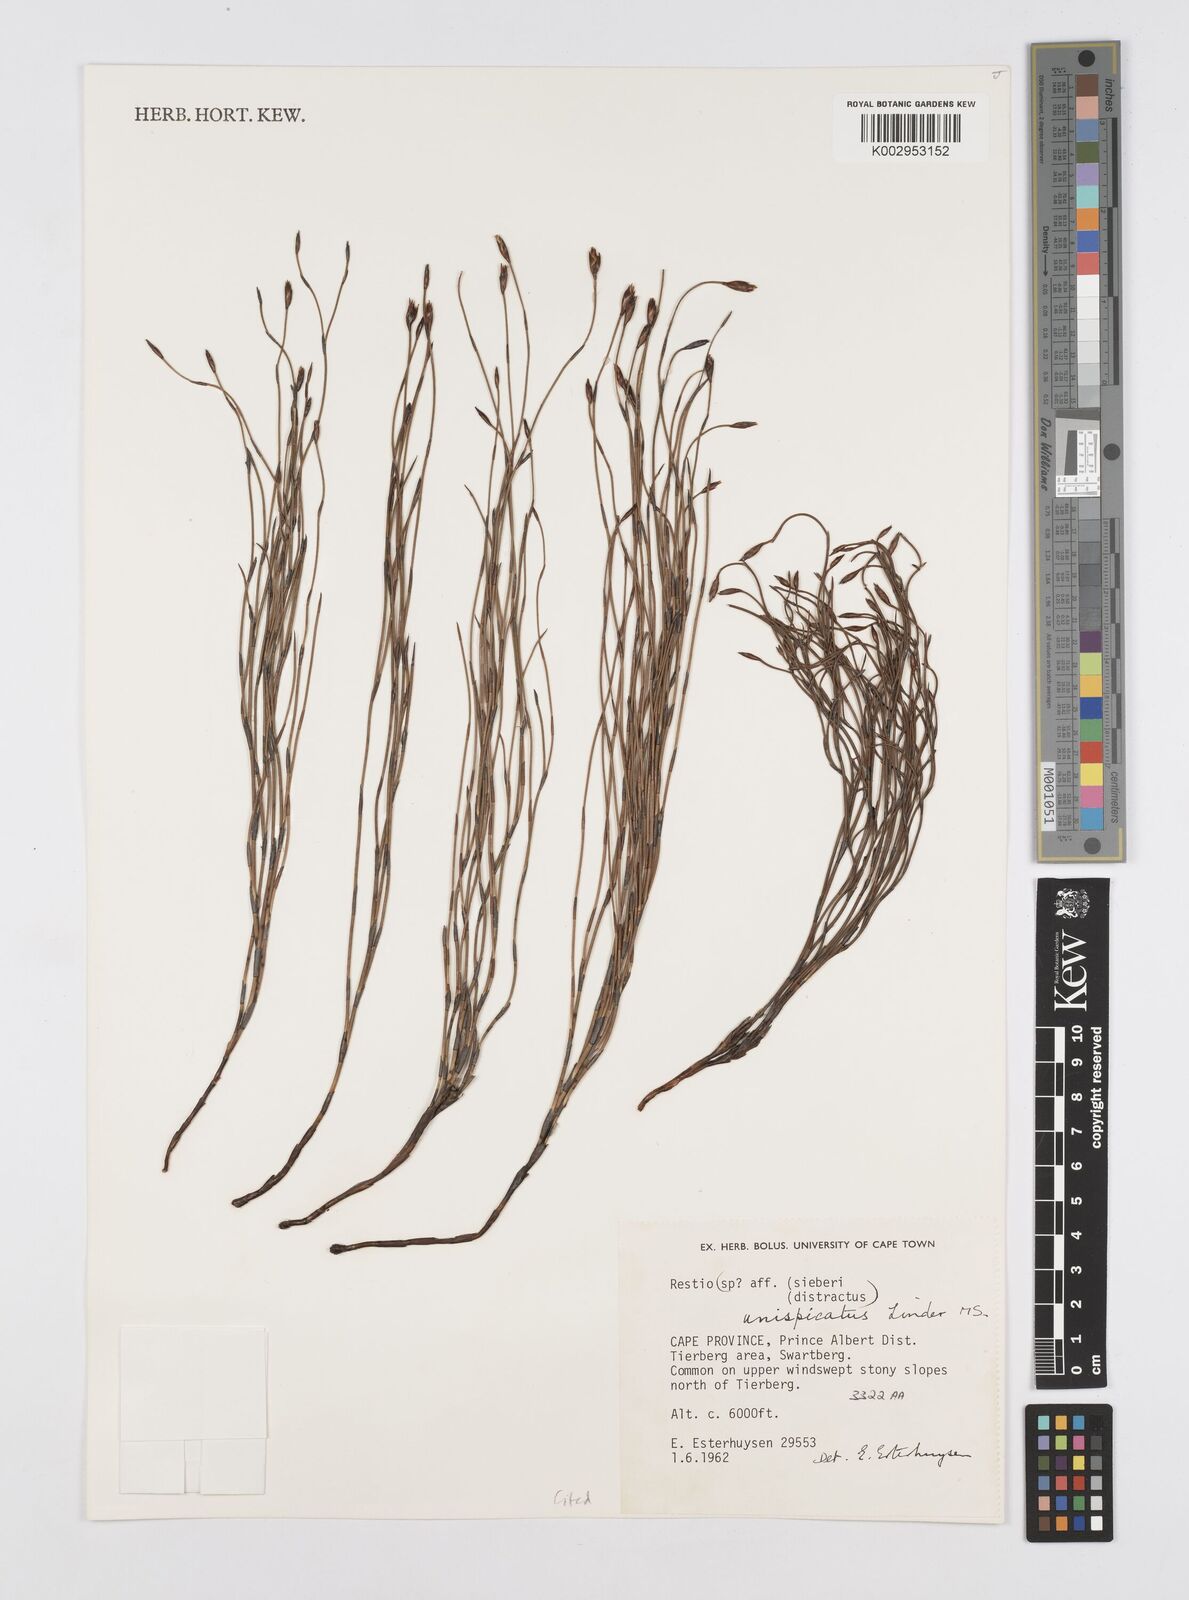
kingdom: Plantae
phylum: Tracheophyta
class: Liliopsida
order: Poales
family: Restionaceae
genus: Restio
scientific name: Restio unispicatus
